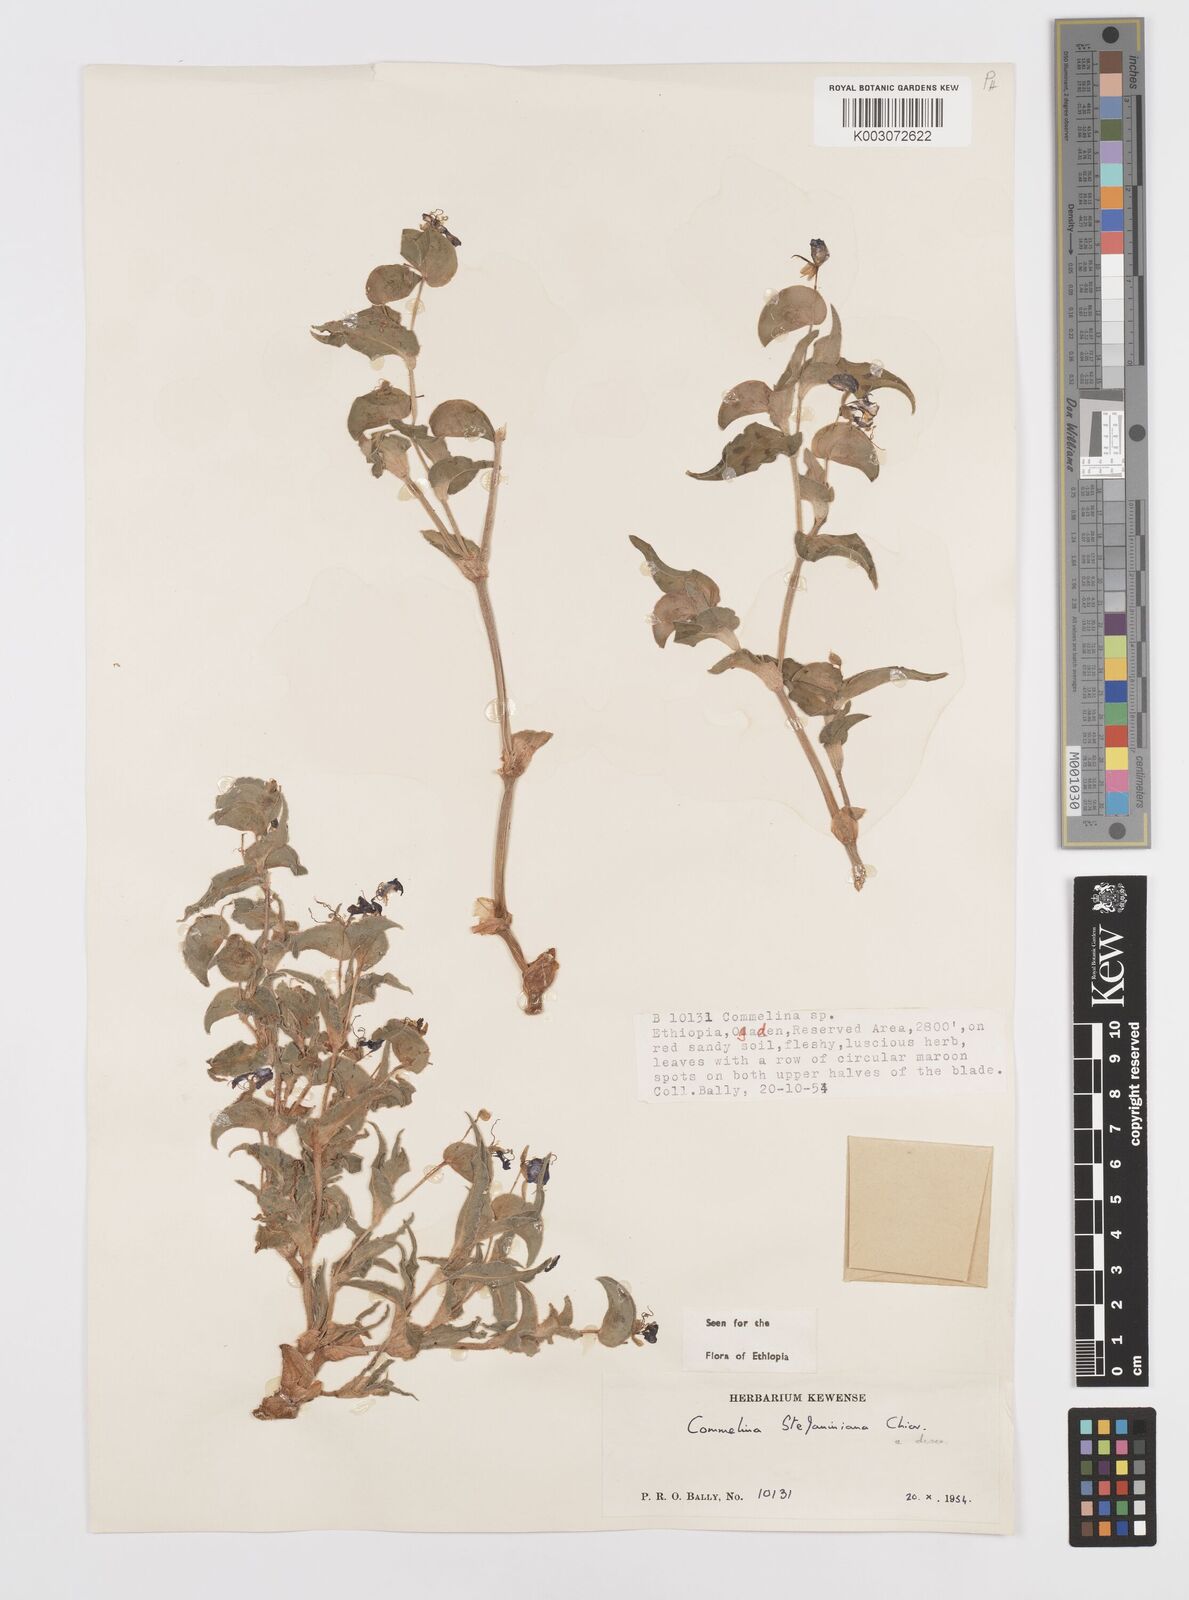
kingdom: Plantae
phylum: Tracheophyta
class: Liliopsida
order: Commelinales
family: Commelinaceae
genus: Commelina
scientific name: Commelina stefaniniana
